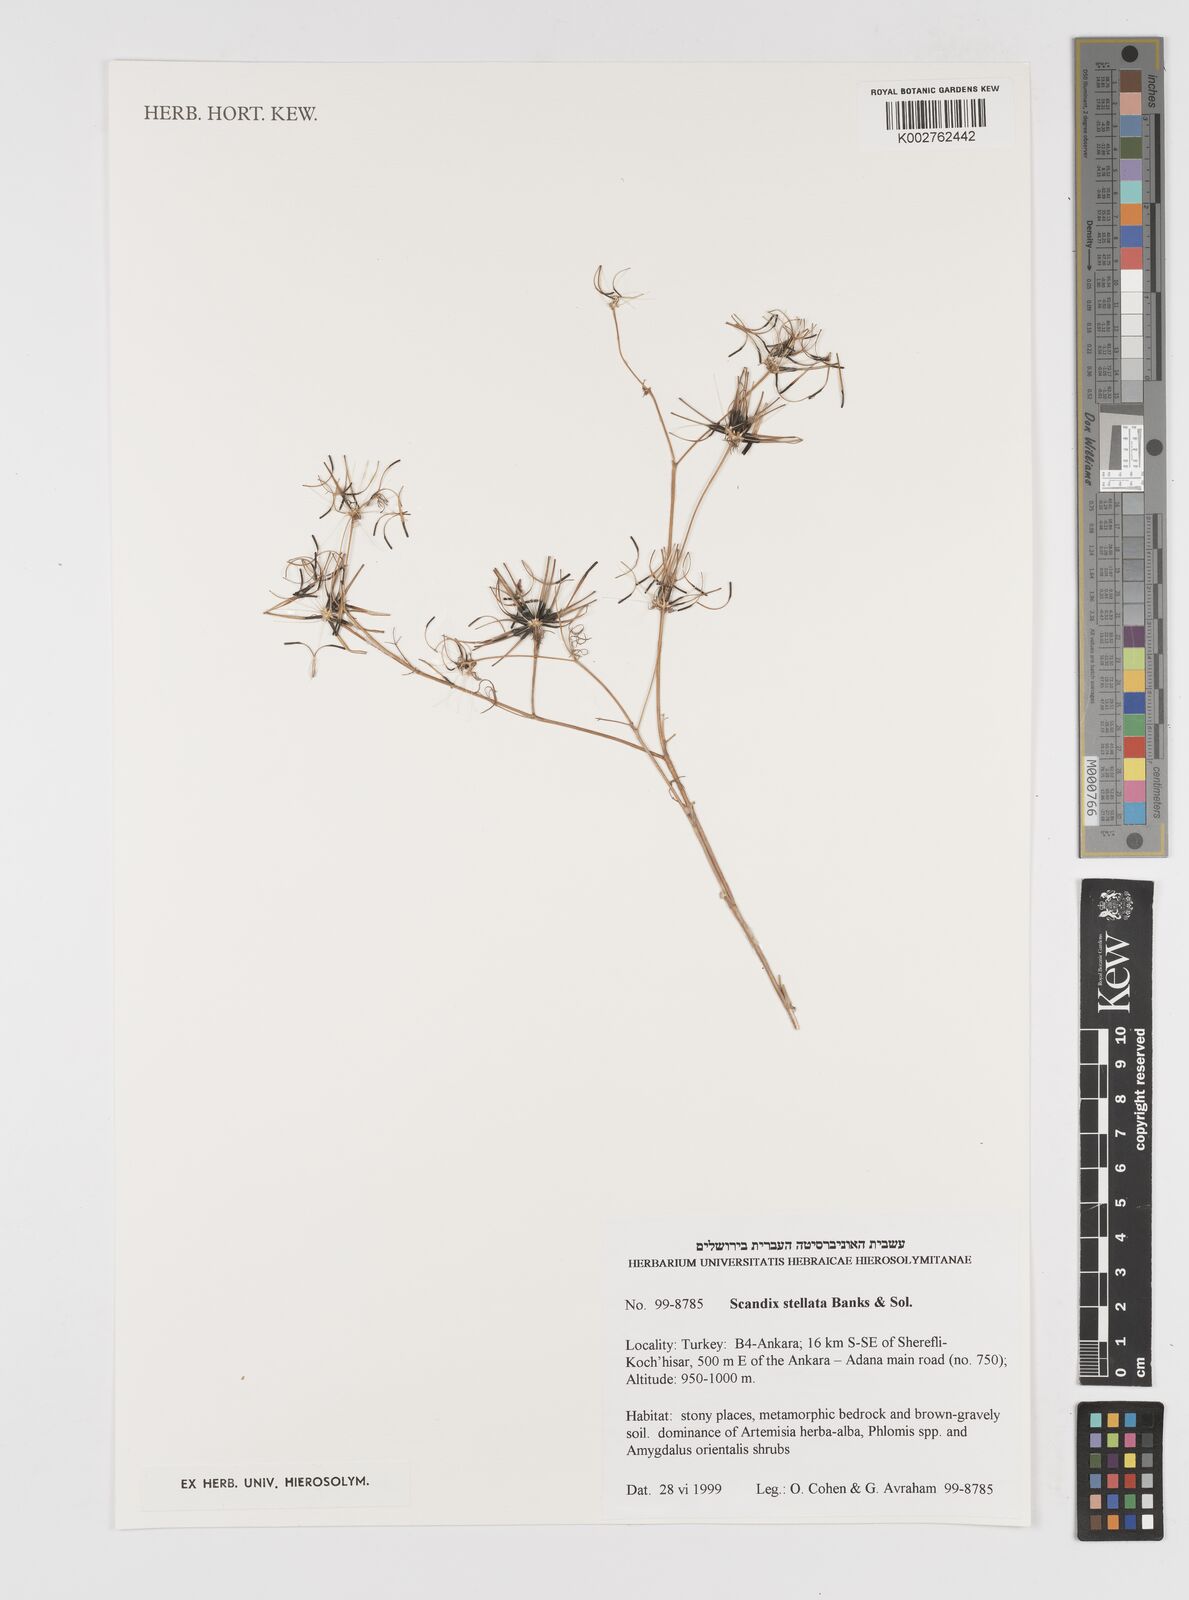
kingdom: Plantae
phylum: Tracheophyta
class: Magnoliopsida
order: Apiales
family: Apiaceae
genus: Scandix
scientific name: Scandix stellata
